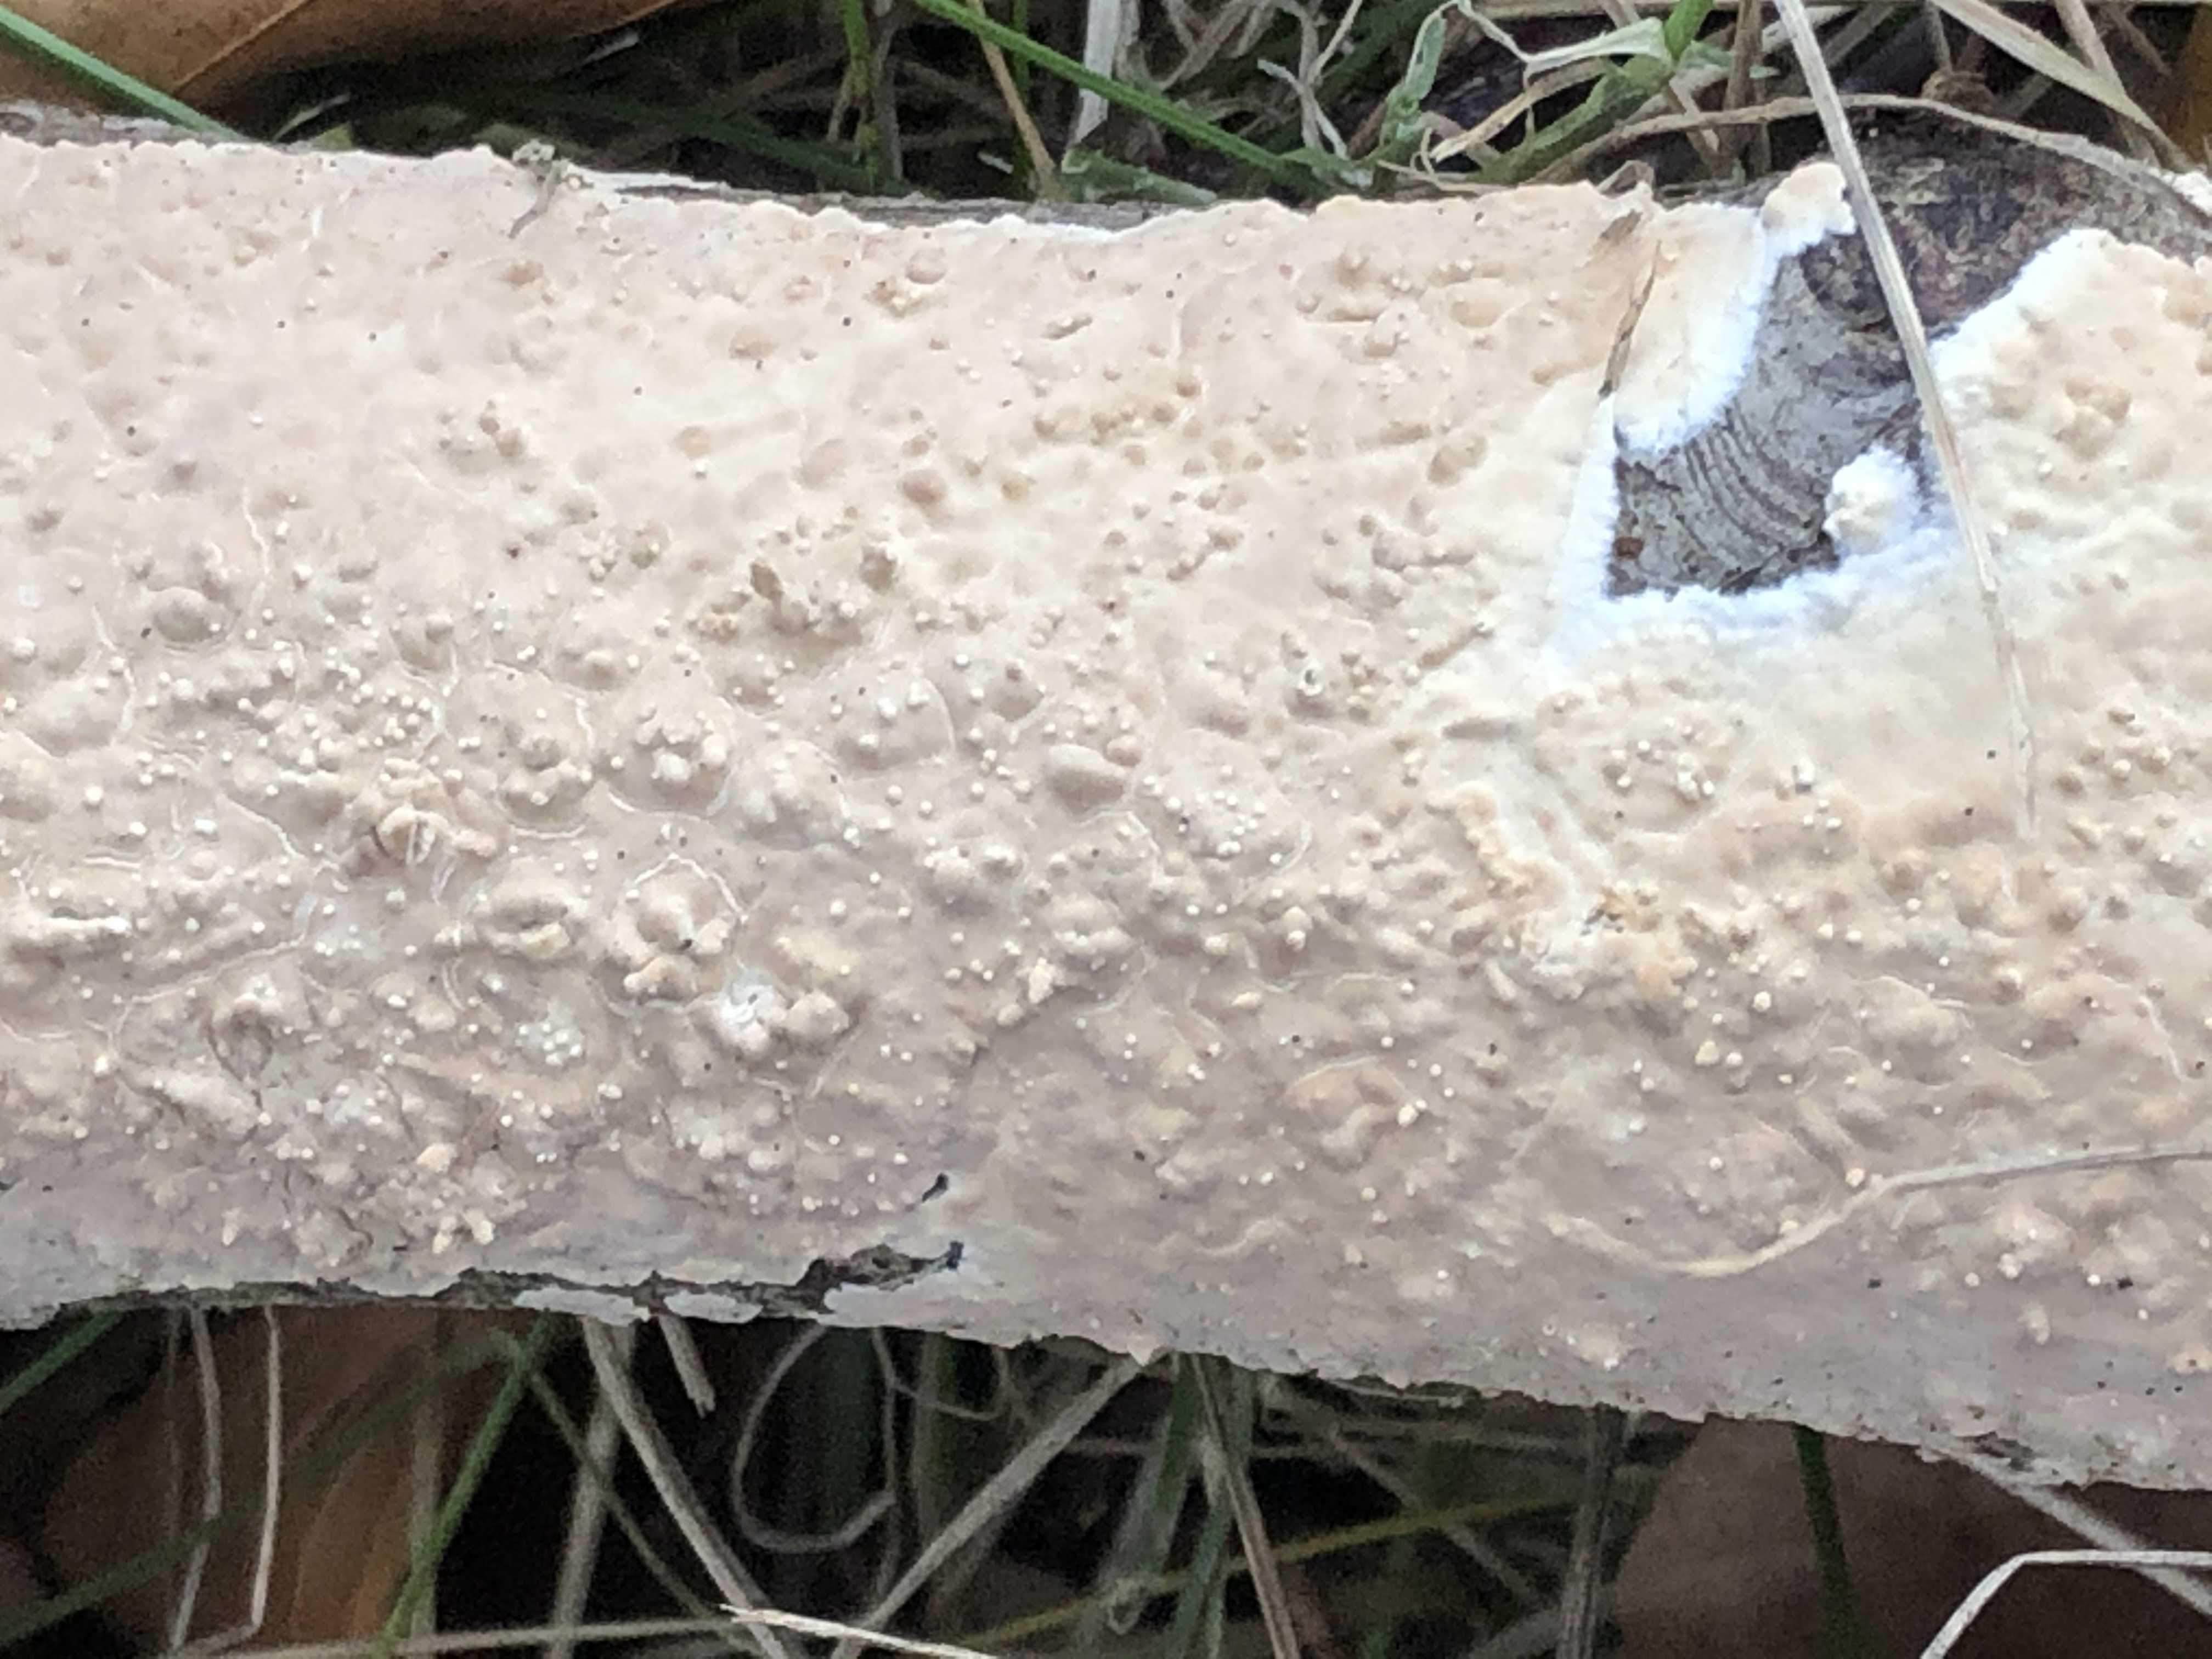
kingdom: Fungi
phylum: Basidiomycota
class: Agaricomycetes
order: Agaricales
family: Physalacriaceae
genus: Cylindrobasidium
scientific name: Cylindrobasidium evolvens
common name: sprækkehinde
